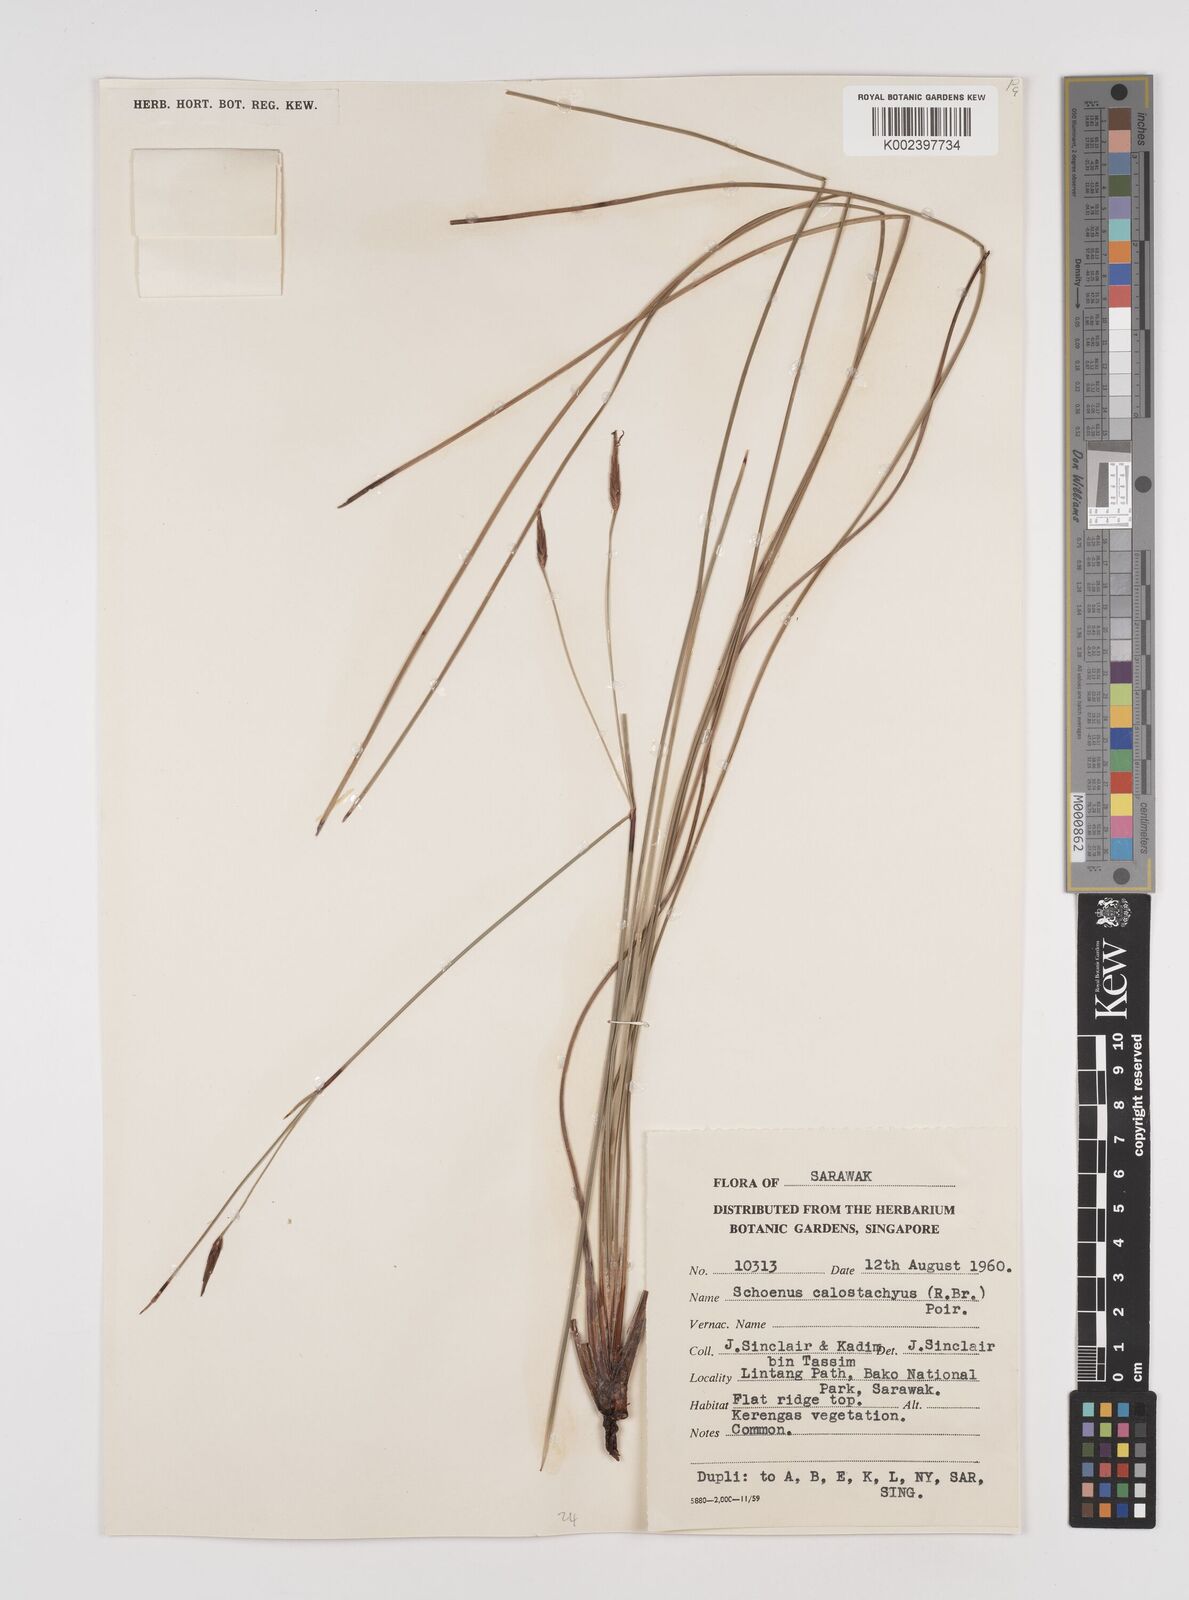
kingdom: Plantae
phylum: Tracheophyta
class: Liliopsida
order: Poales
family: Cyperaceae
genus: Schoenus
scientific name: Schoenus calostachyus
